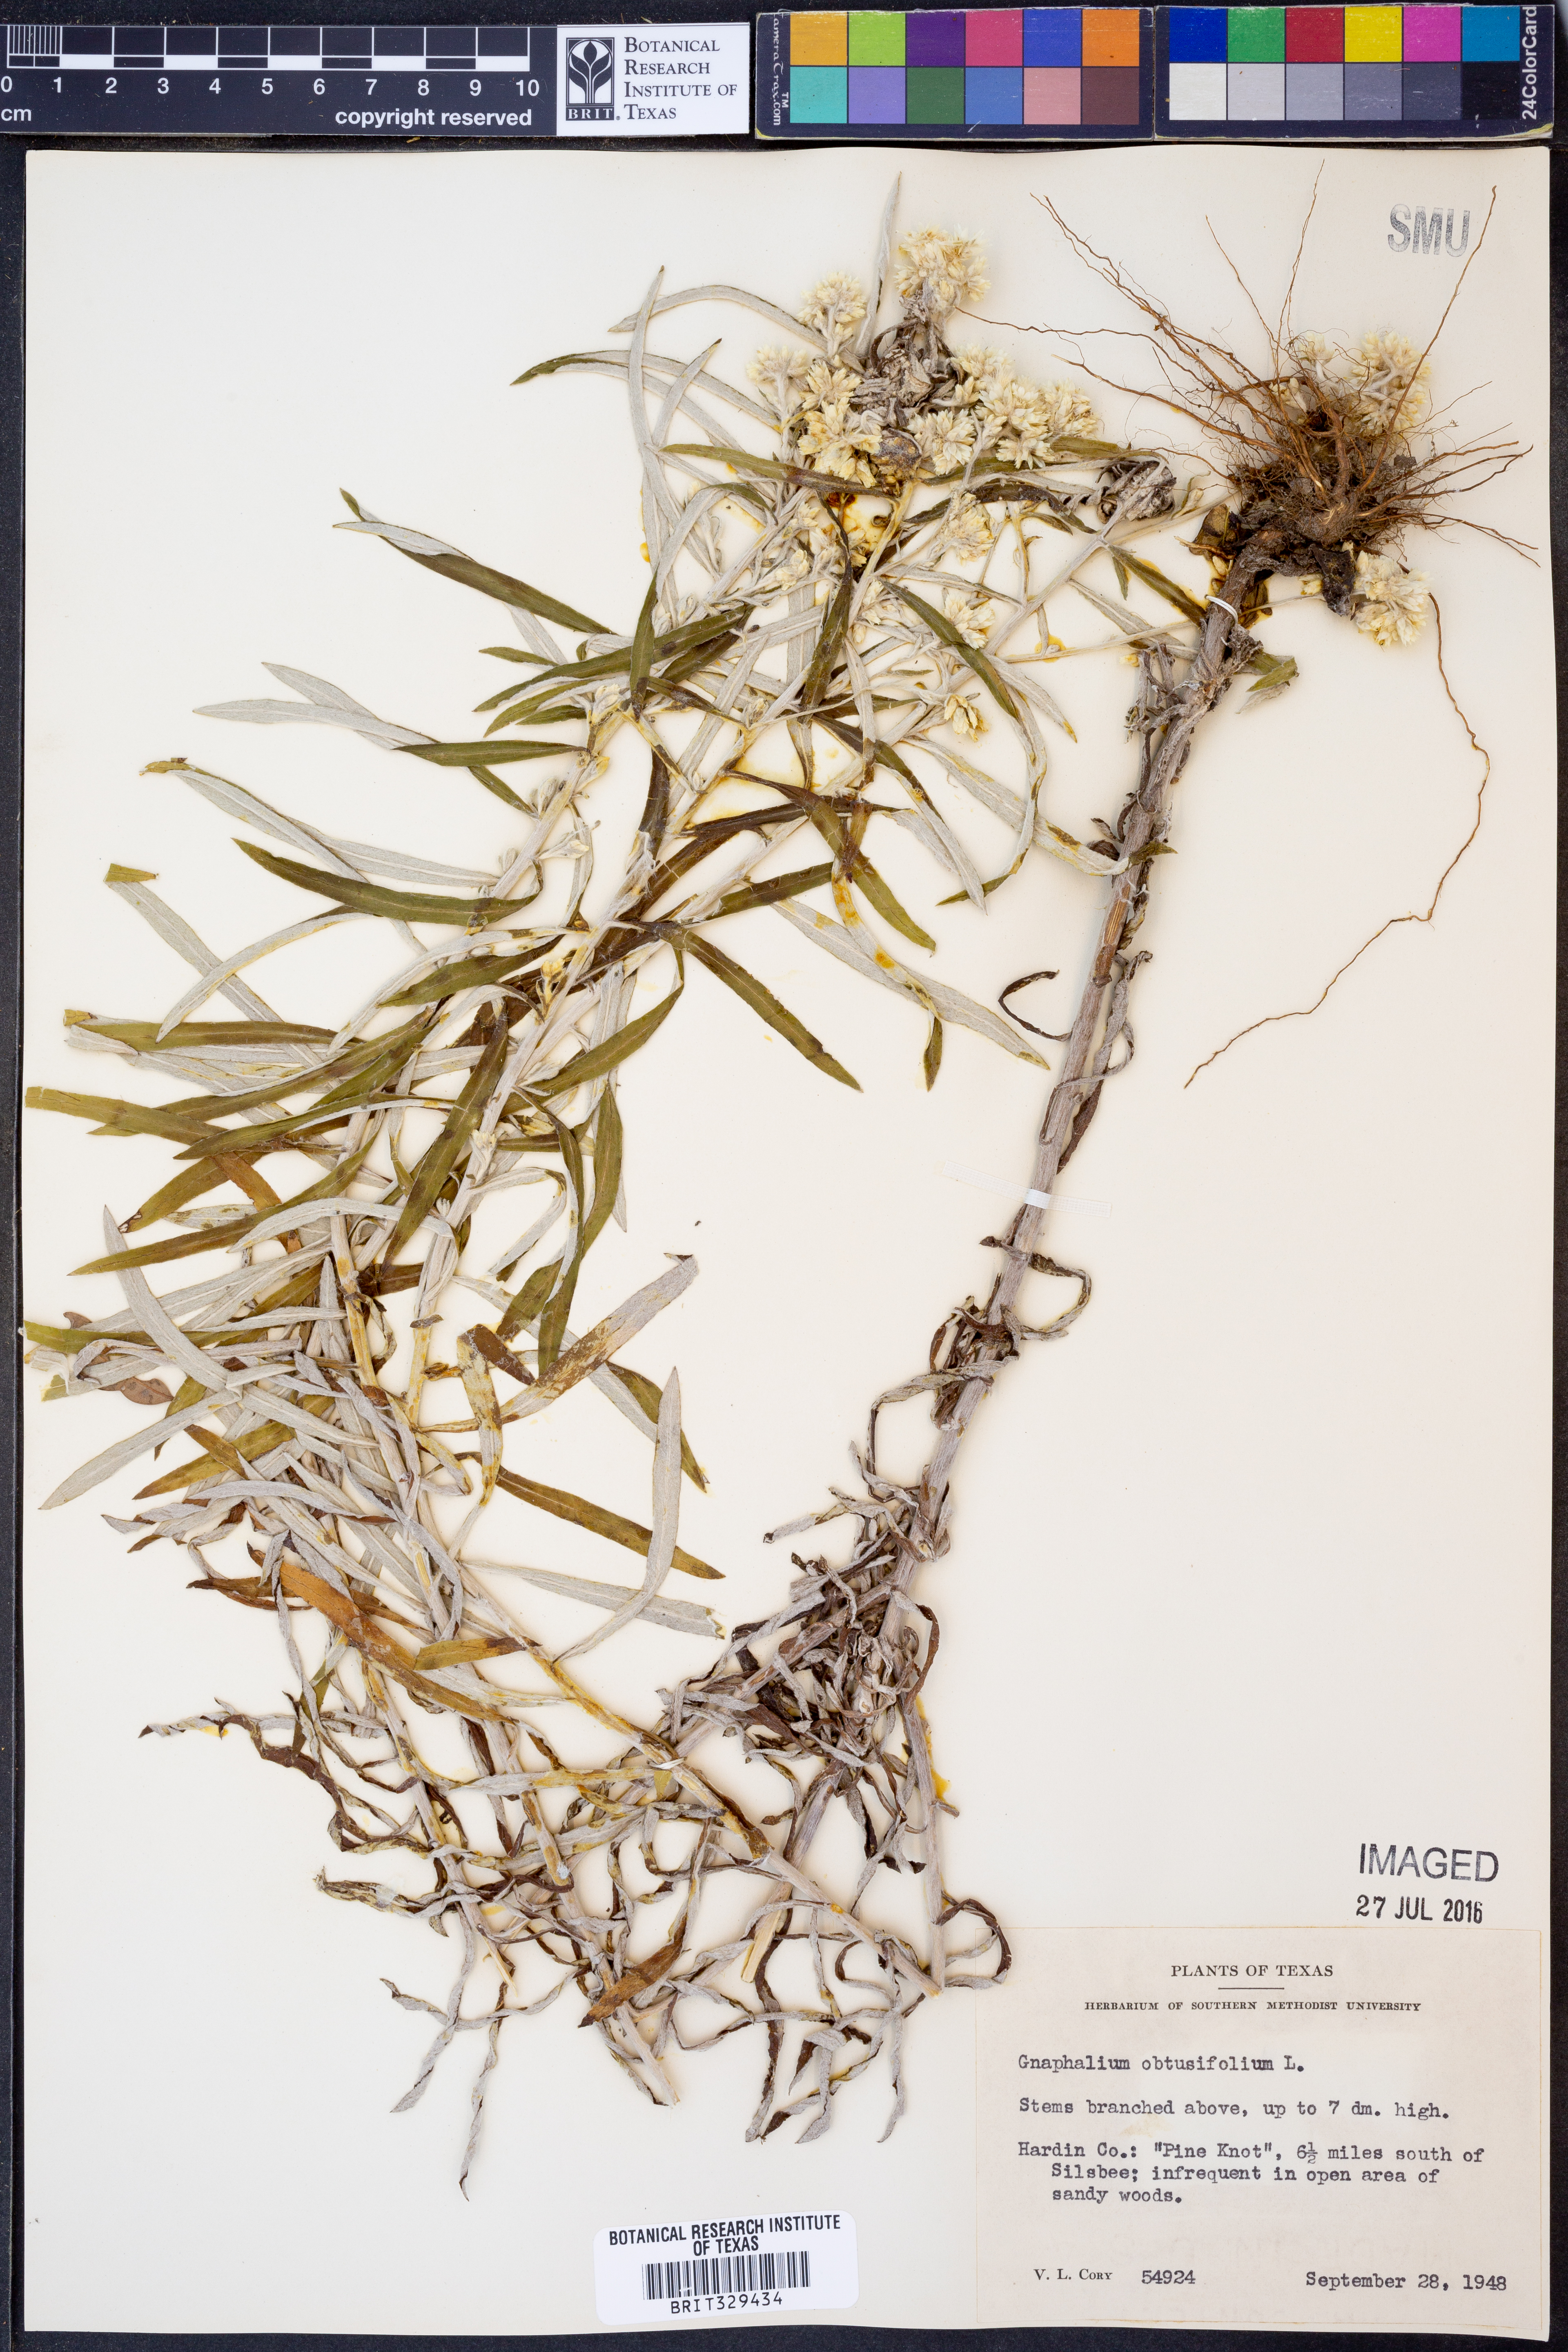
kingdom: Plantae
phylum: Tracheophyta
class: Magnoliopsida
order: Asterales
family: Asteraceae
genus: Pseudognaphalium
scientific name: Pseudognaphalium obtusifolium
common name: Eastern rabbit-tobacco
